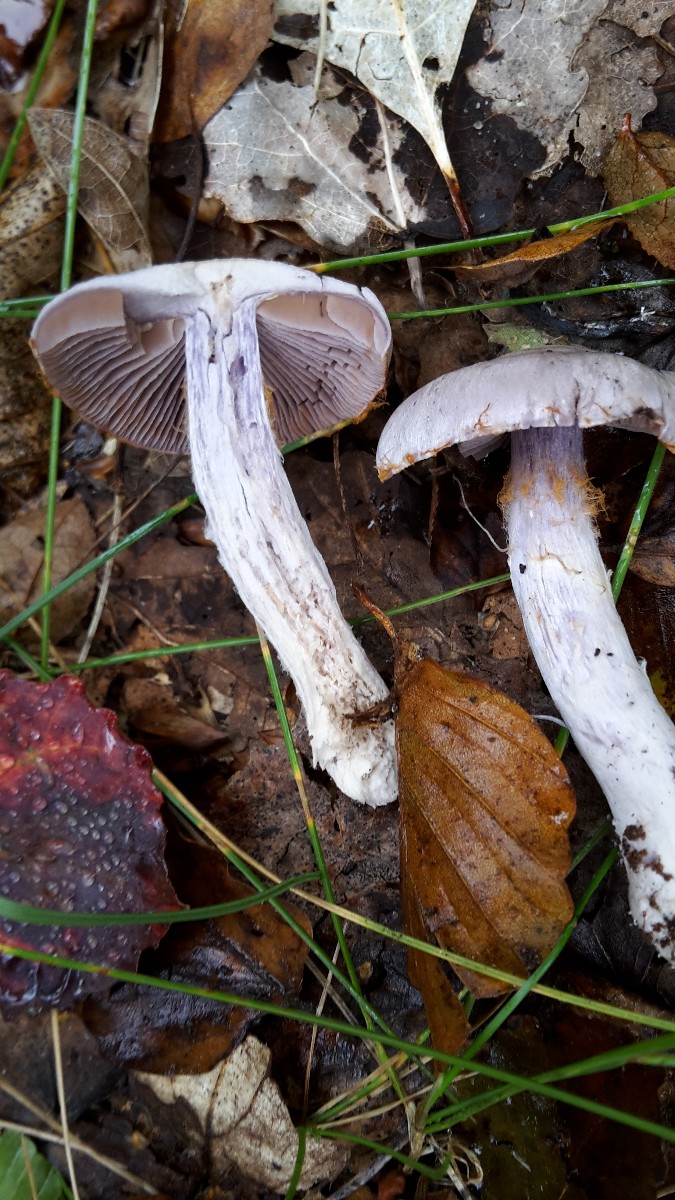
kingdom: Fungi
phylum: Basidiomycota
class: Agaricomycetes
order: Agaricales
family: Cortinariaceae
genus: Cortinarius
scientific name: Cortinarius alboviolaceus
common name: lysviolet slørhat
